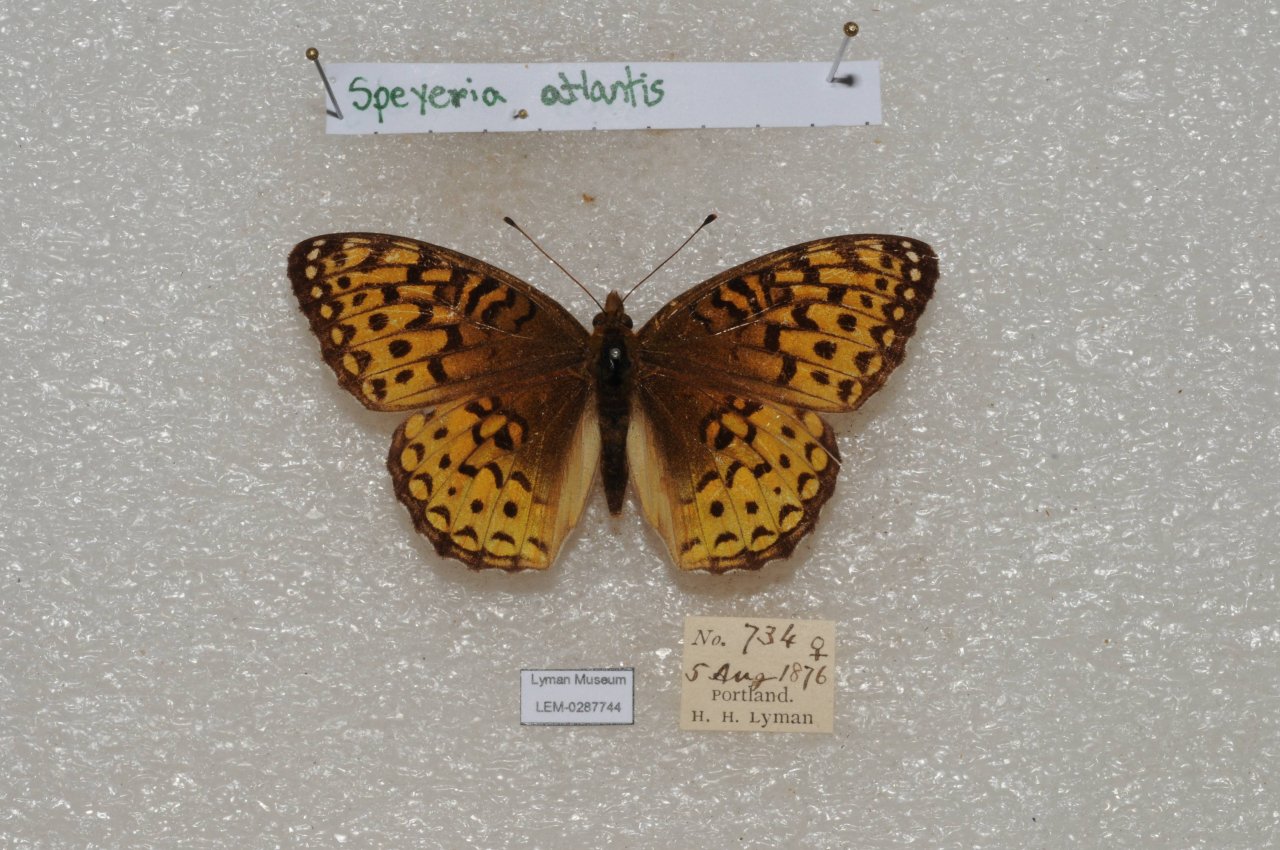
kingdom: Animalia
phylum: Arthropoda
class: Insecta
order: Lepidoptera
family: Nymphalidae
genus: Speyeria
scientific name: Speyeria atlantis
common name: Atlantis Fritillary
